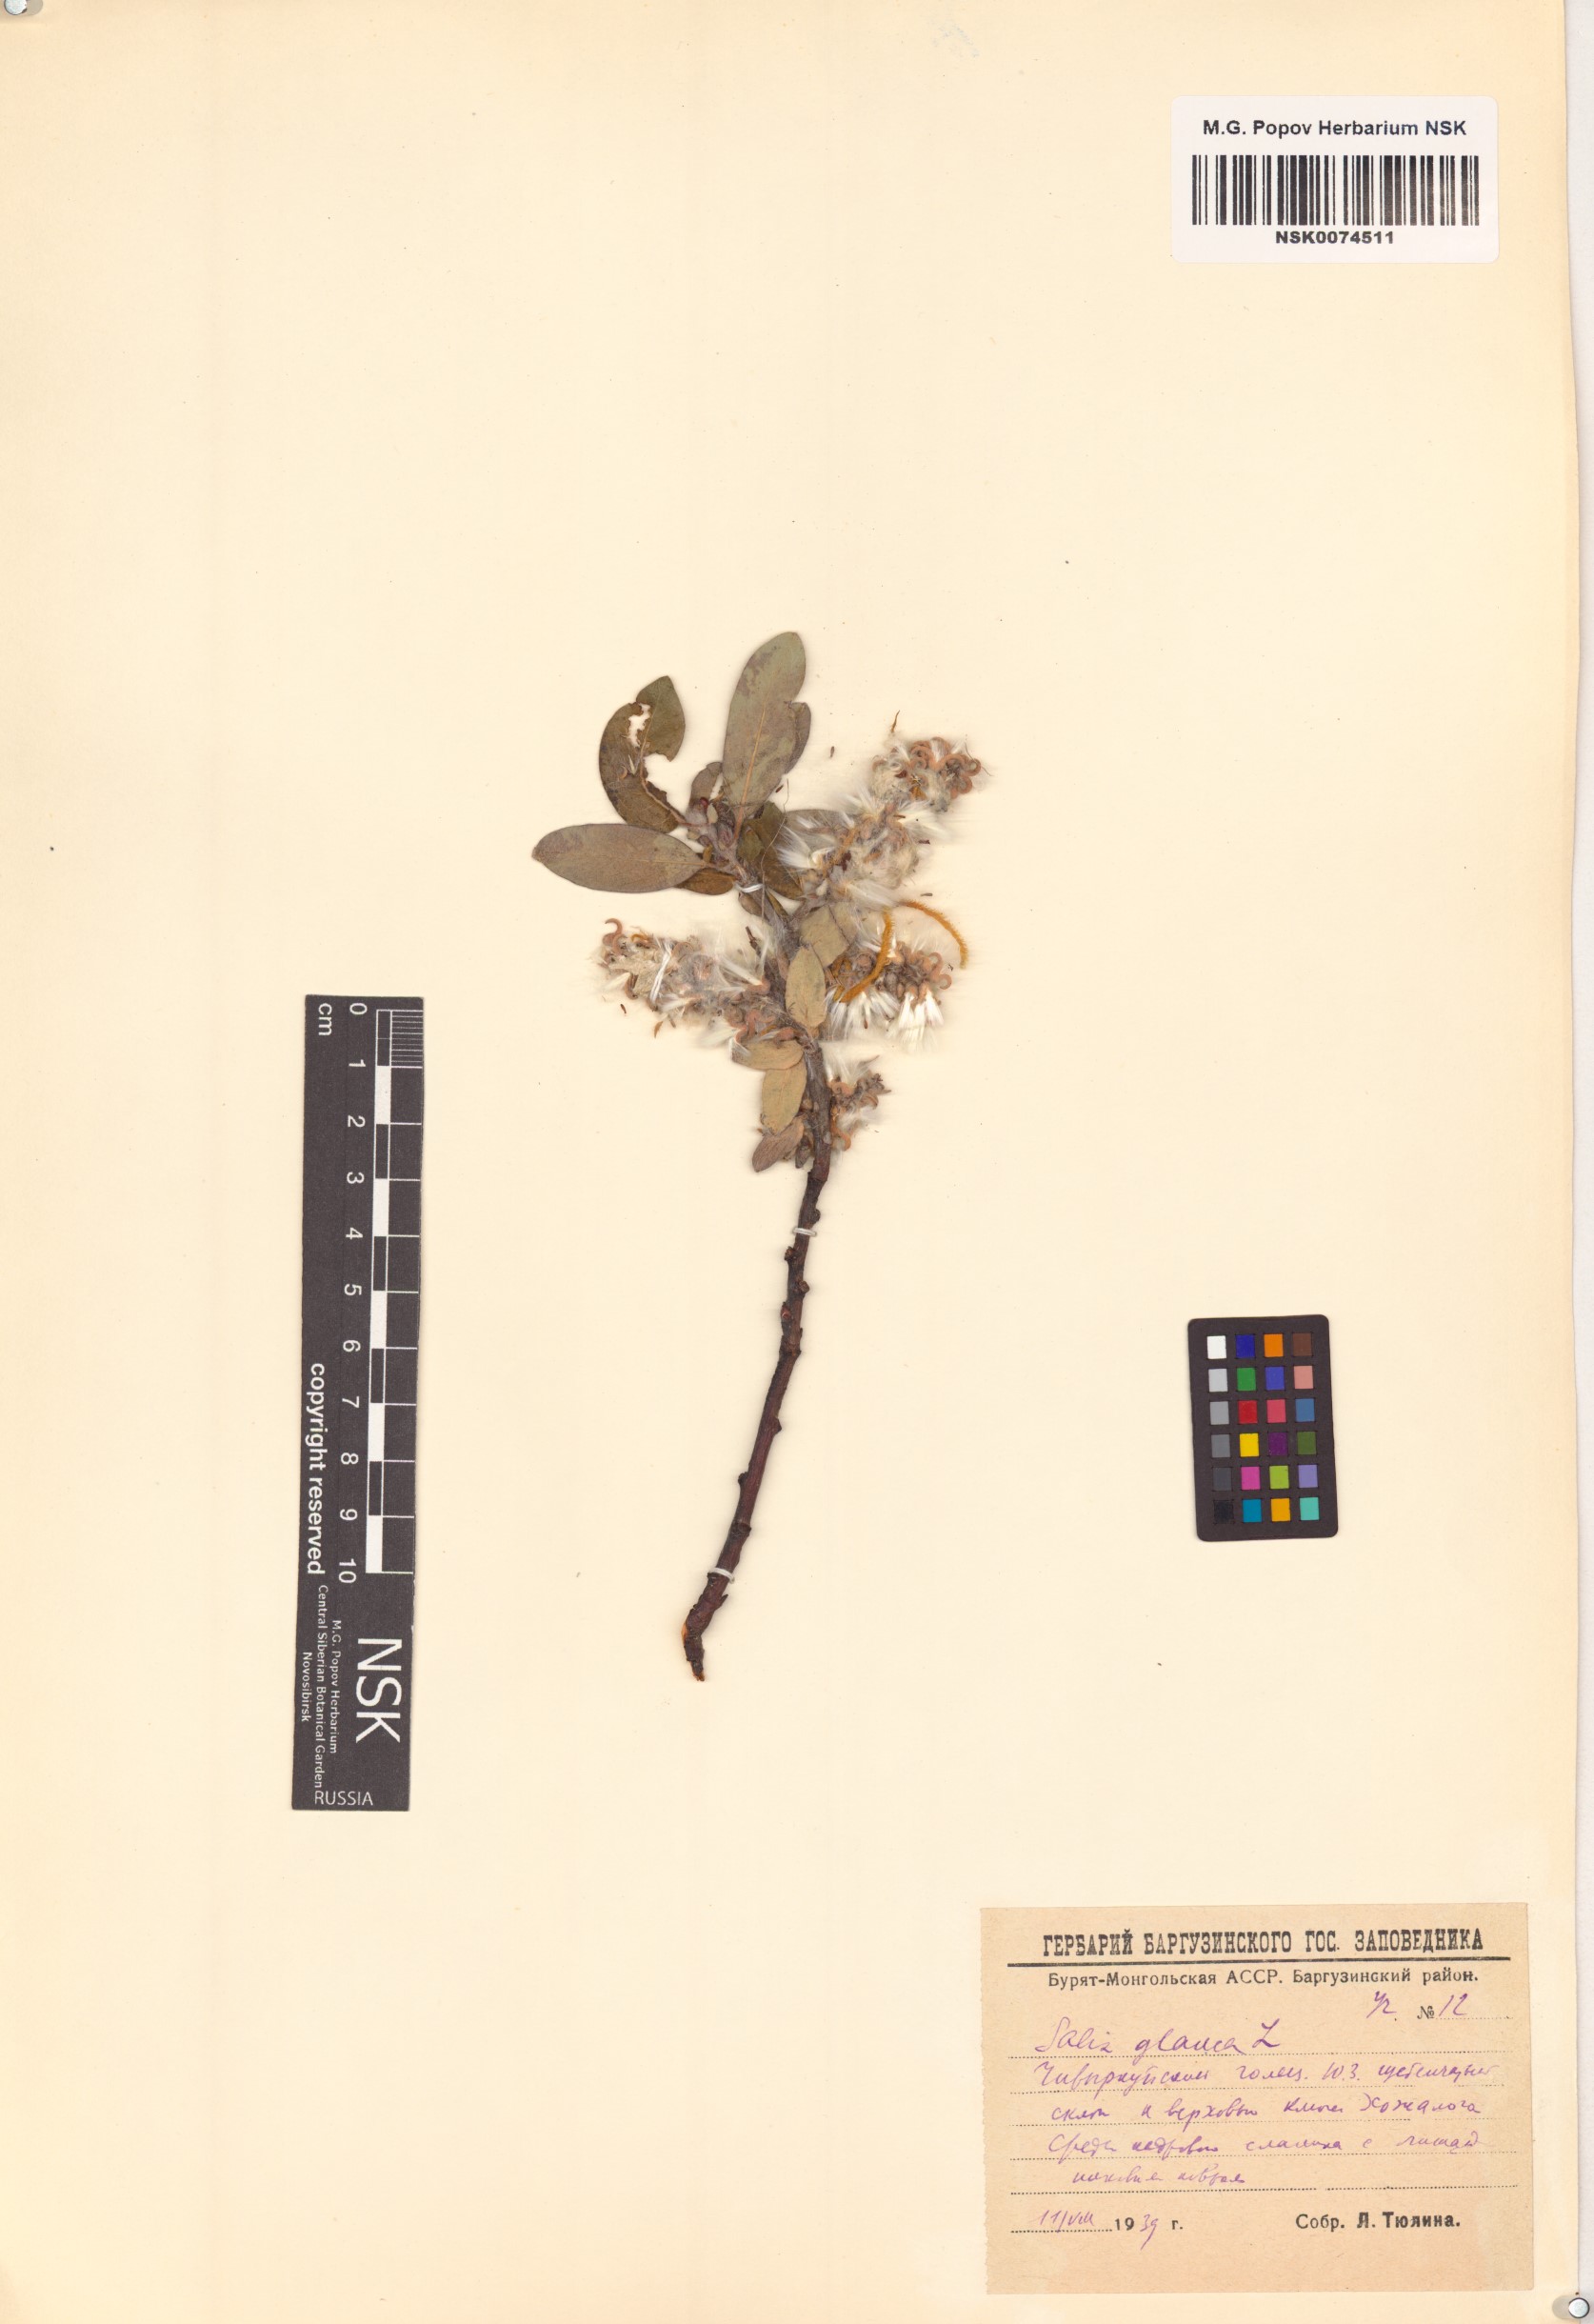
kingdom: Plantae
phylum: Tracheophyta
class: Magnoliopsida
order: Malpighiales
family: Salicaceae
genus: Salix
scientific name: Salix glauca
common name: Glaucous willow
